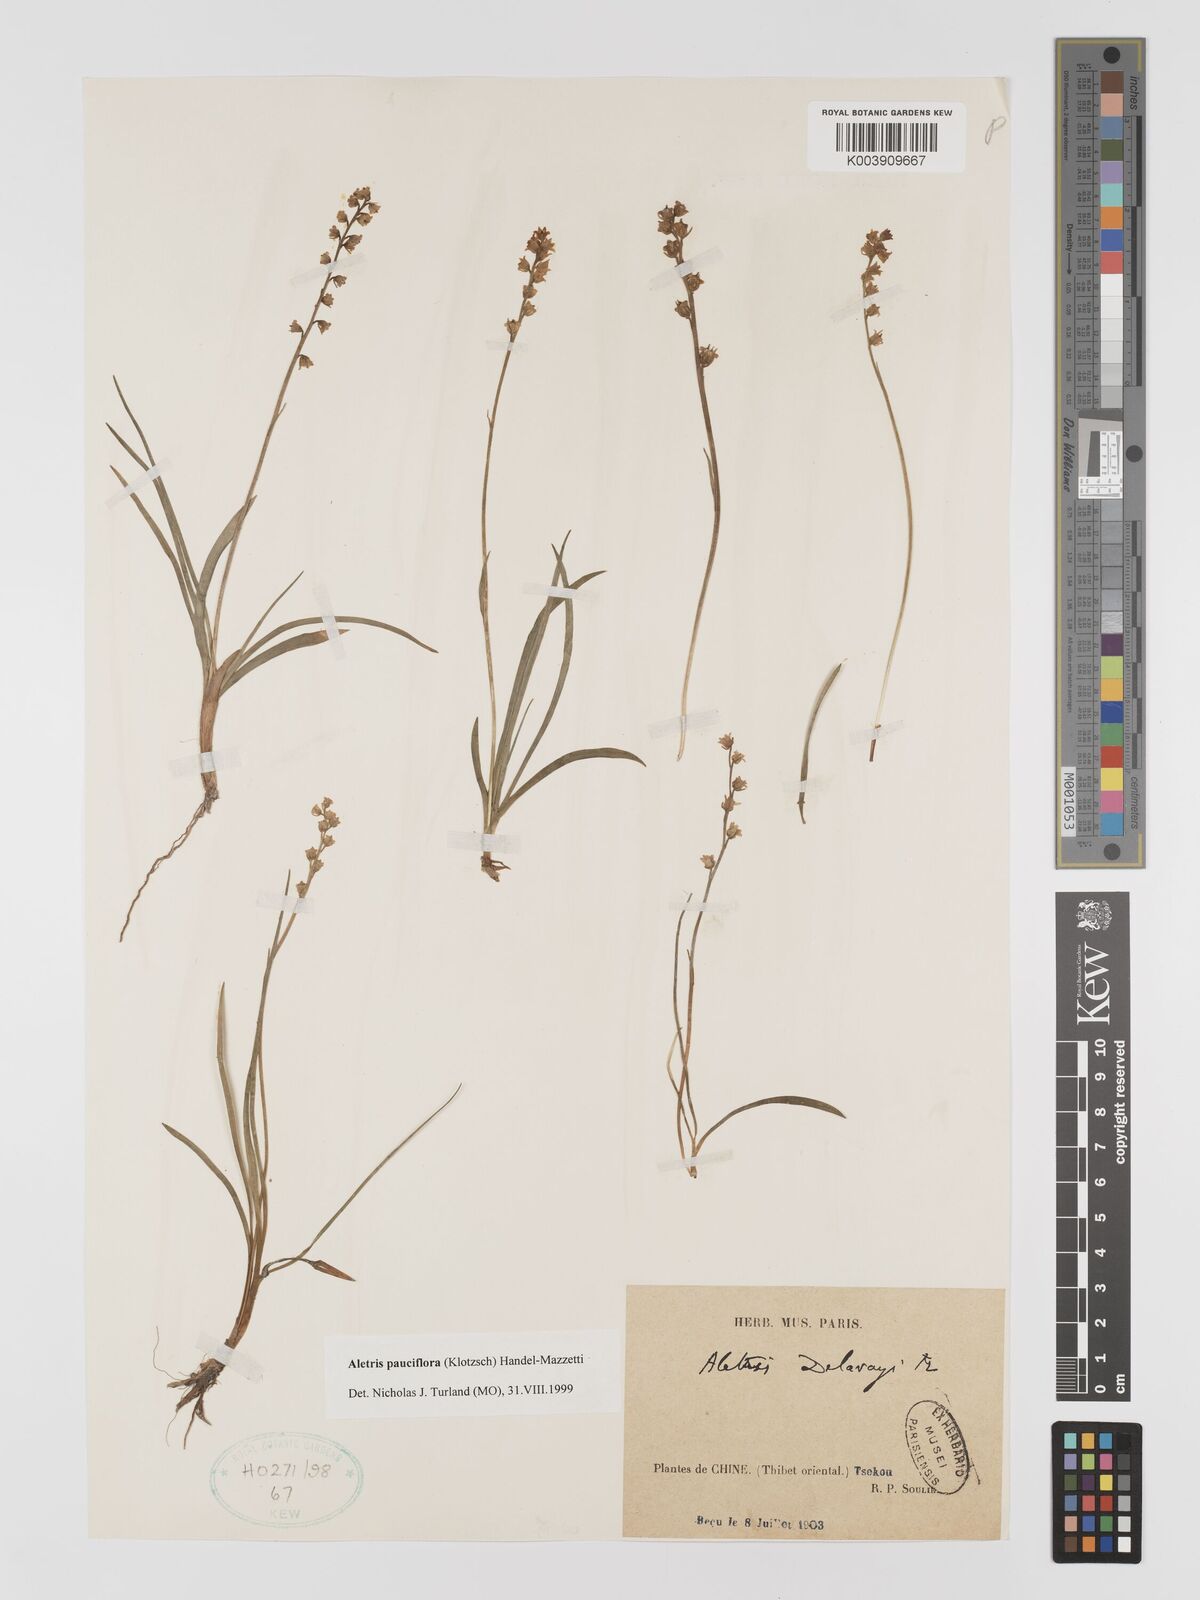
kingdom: Plantae
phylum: Tracheophyta
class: Liliopsida
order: Dioscoreales
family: Nartheciaceae
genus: Aletris
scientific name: Aletris pauciflora
